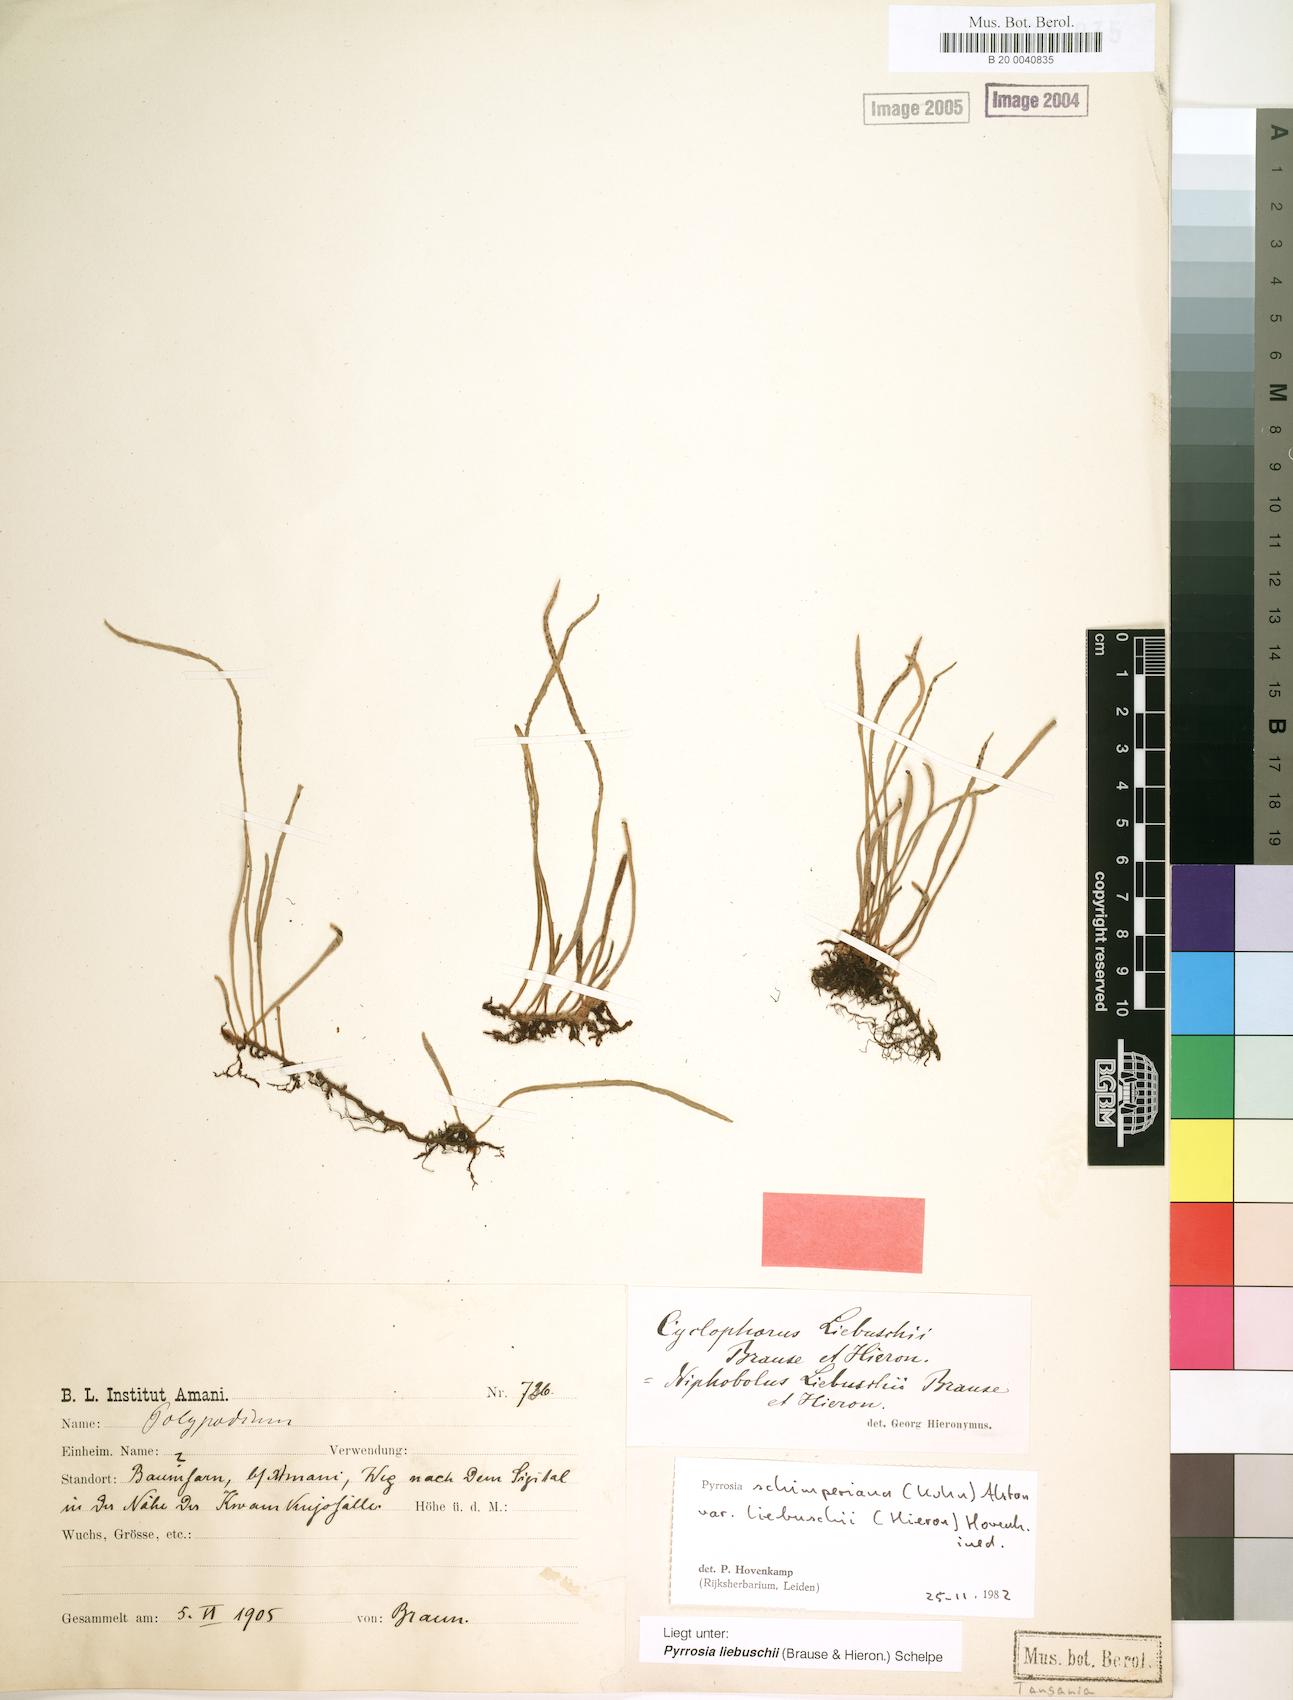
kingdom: Plantae
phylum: Tracheophyta
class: Polypodiopsida
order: Polypodiales
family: Polypodiaceae
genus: Hovenkampia
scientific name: Hovenkampia liebuschii
